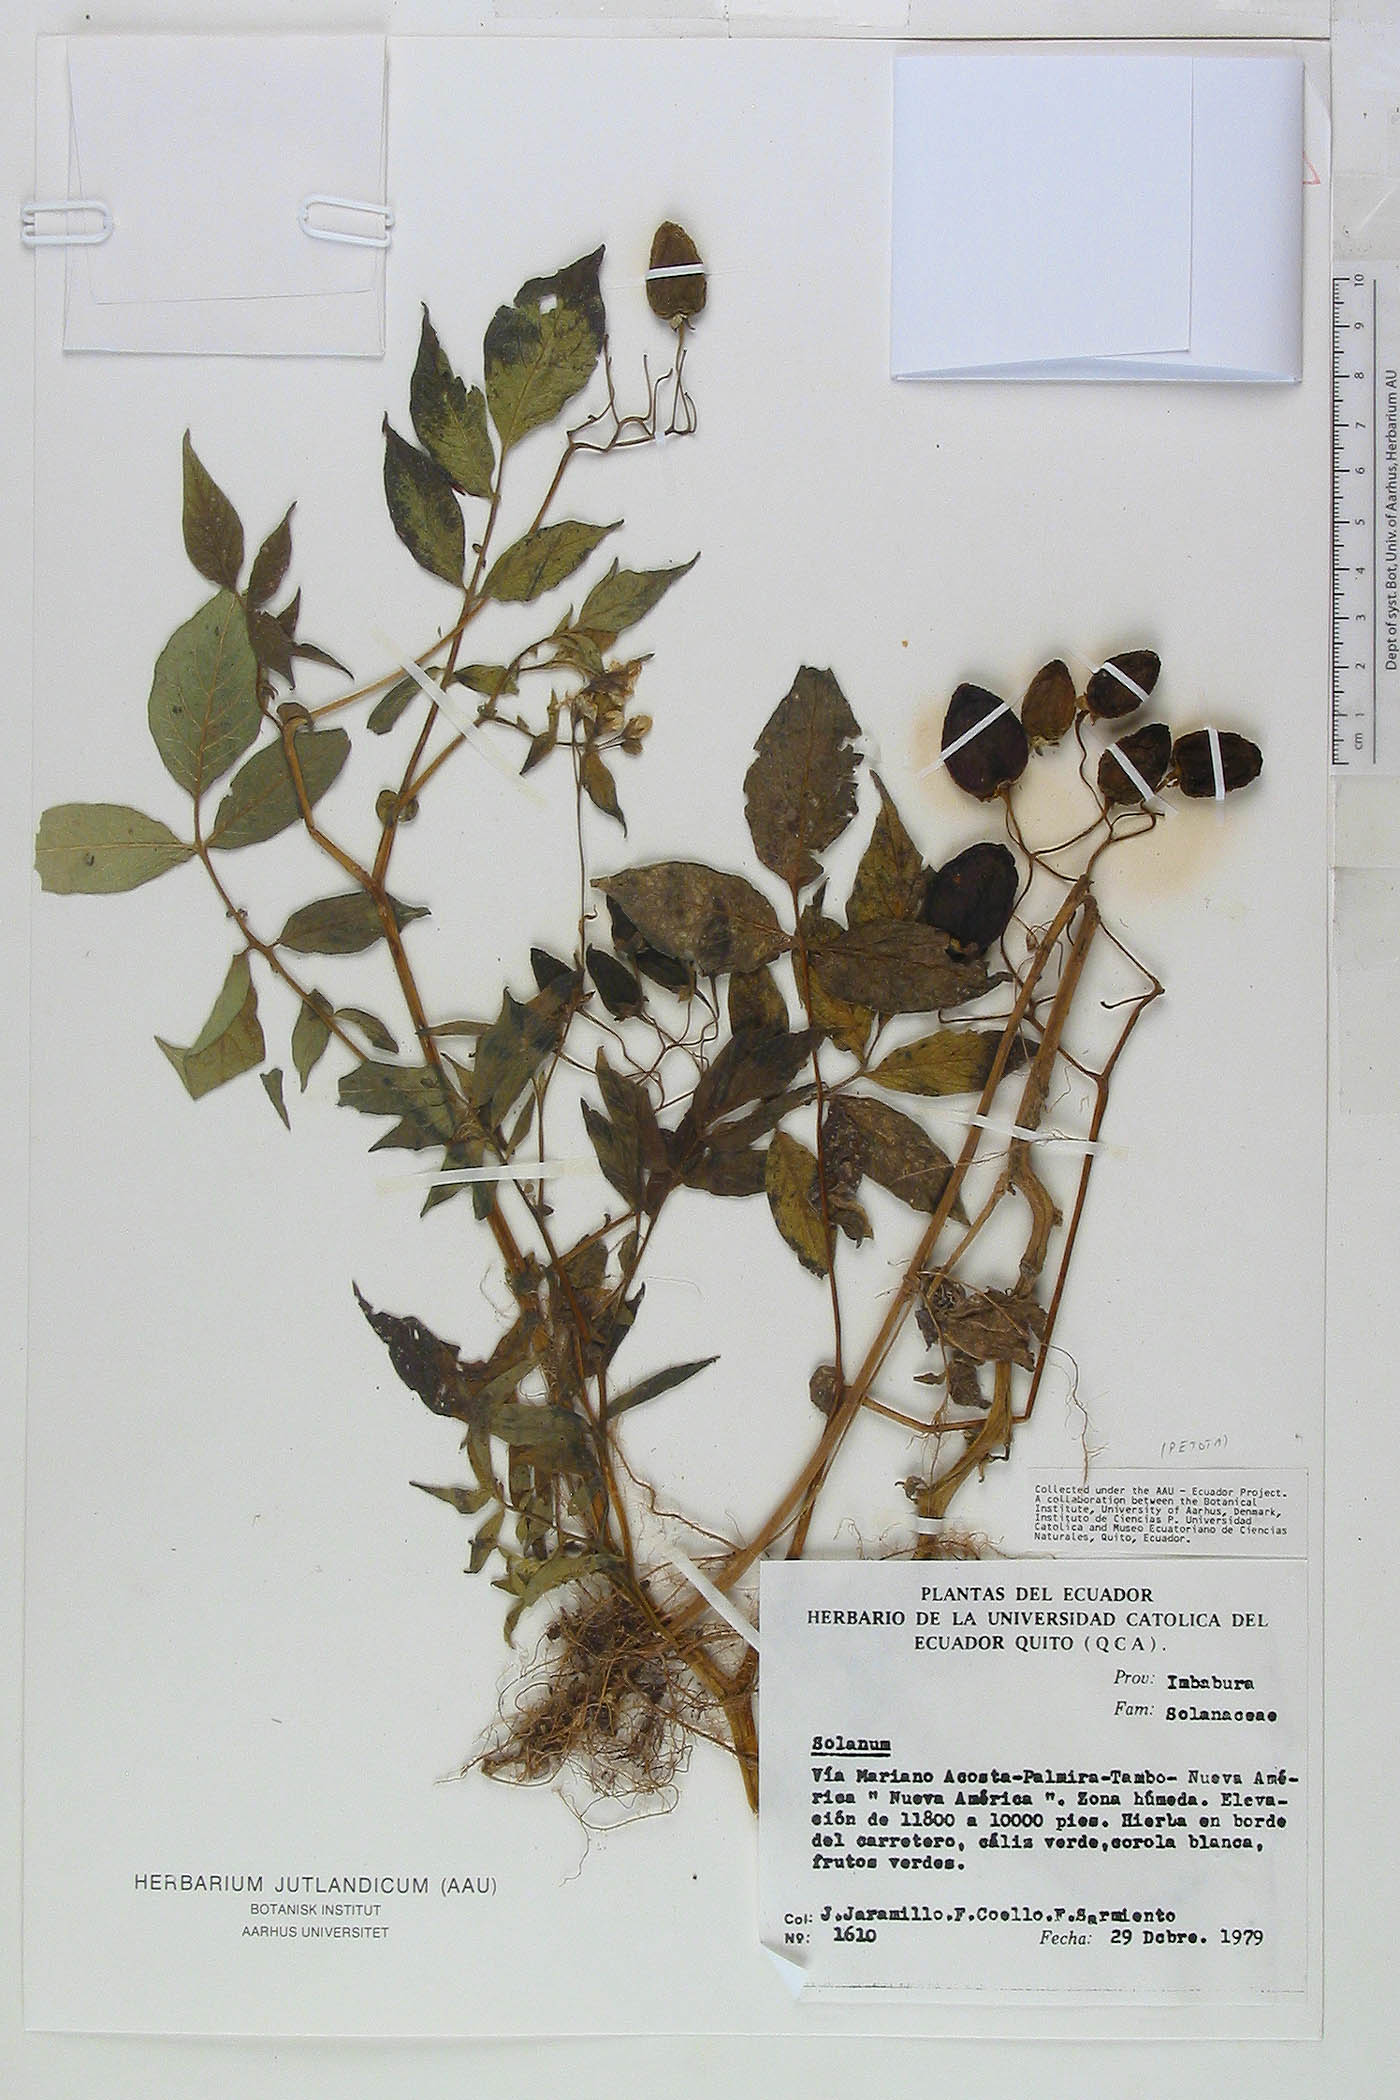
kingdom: Plantae
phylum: Tracheophyta
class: Magnoliopsida
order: Solanales
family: Solanaceae
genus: Solanum
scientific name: Solanum colombianum
